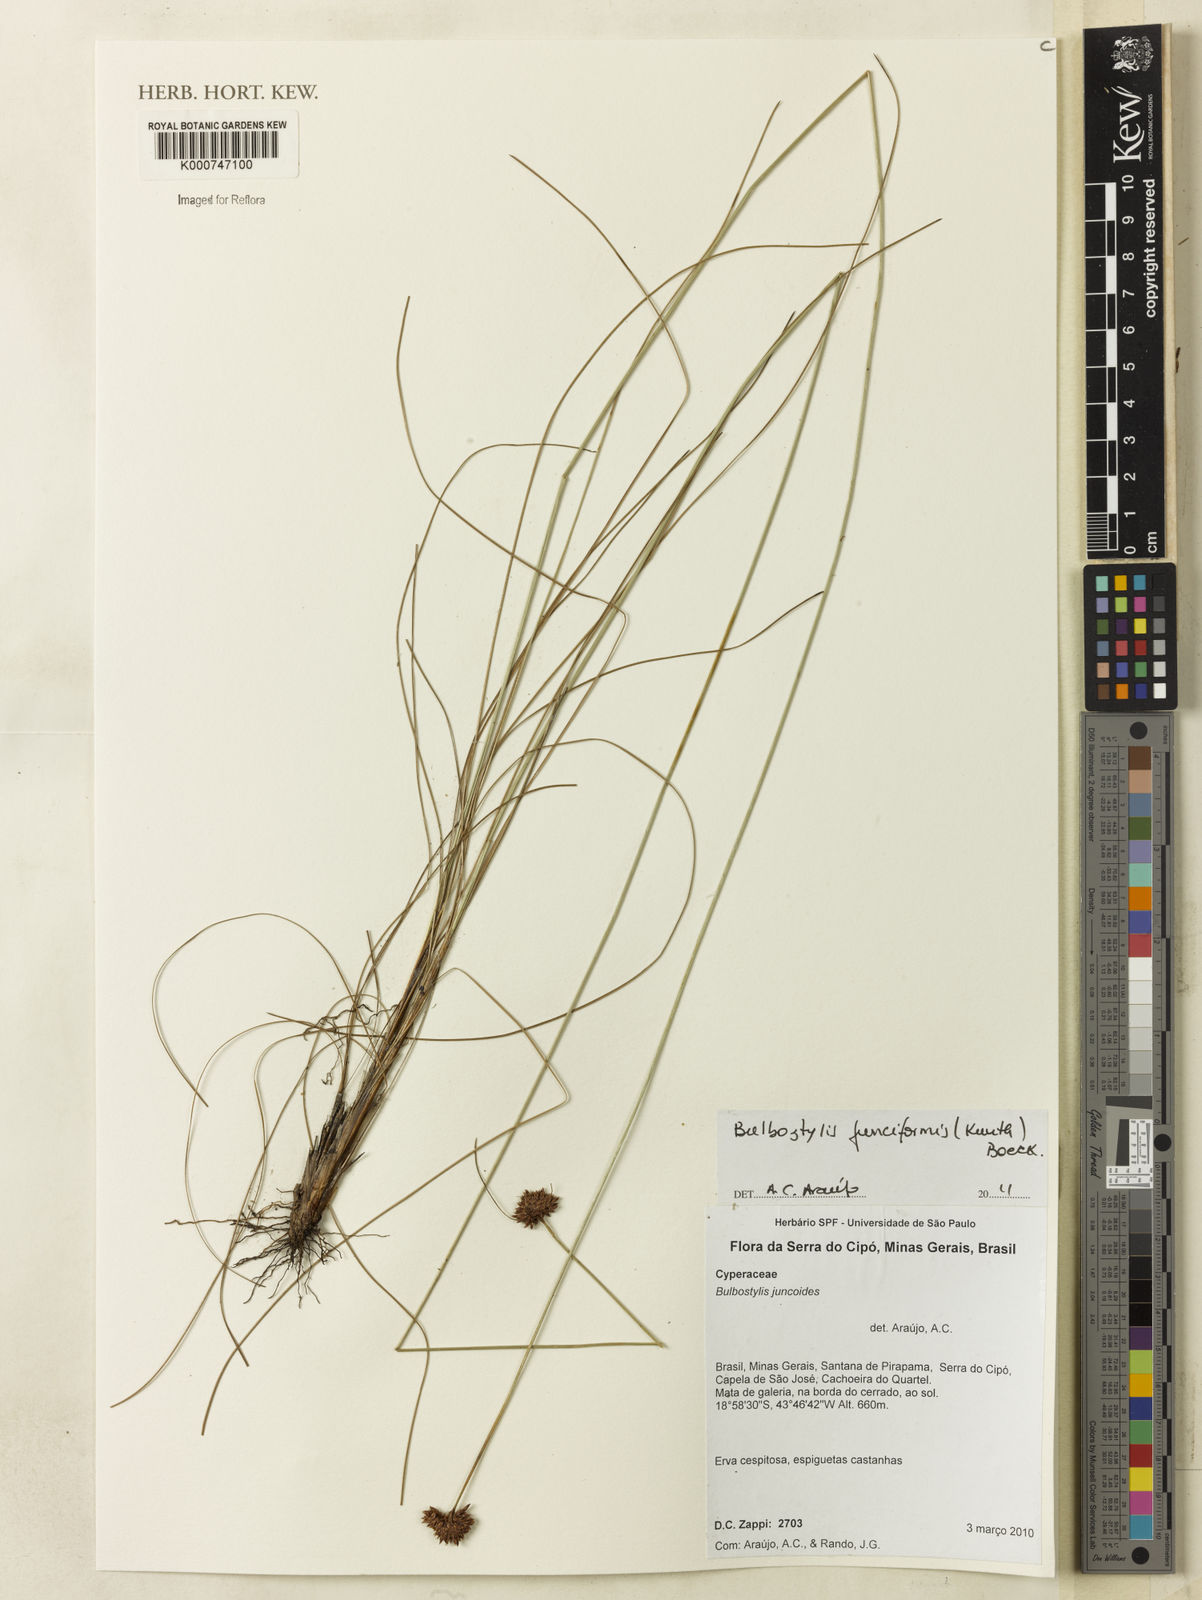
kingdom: Plantae
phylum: Tracheophyta
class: Liliopsida
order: Poales
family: Cyperaceae
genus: Bulbostylis
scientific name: Bulbostylis junciformis
